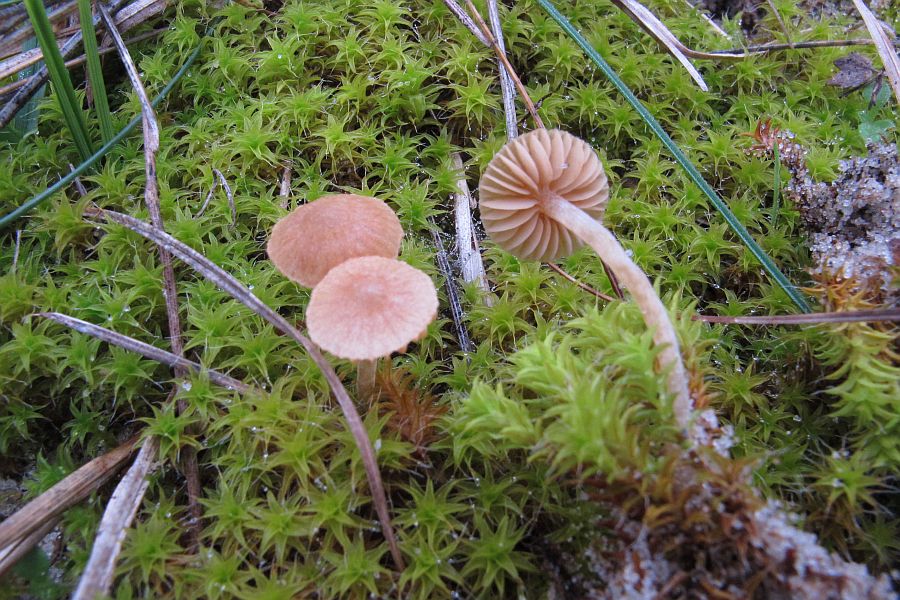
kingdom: Fungi
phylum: Basidiomycota
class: Agaricomycetes
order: Agaricales
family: Hymenogastraceae
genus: Galerina
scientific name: Galerina graminea
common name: plæne-hjelmhat
